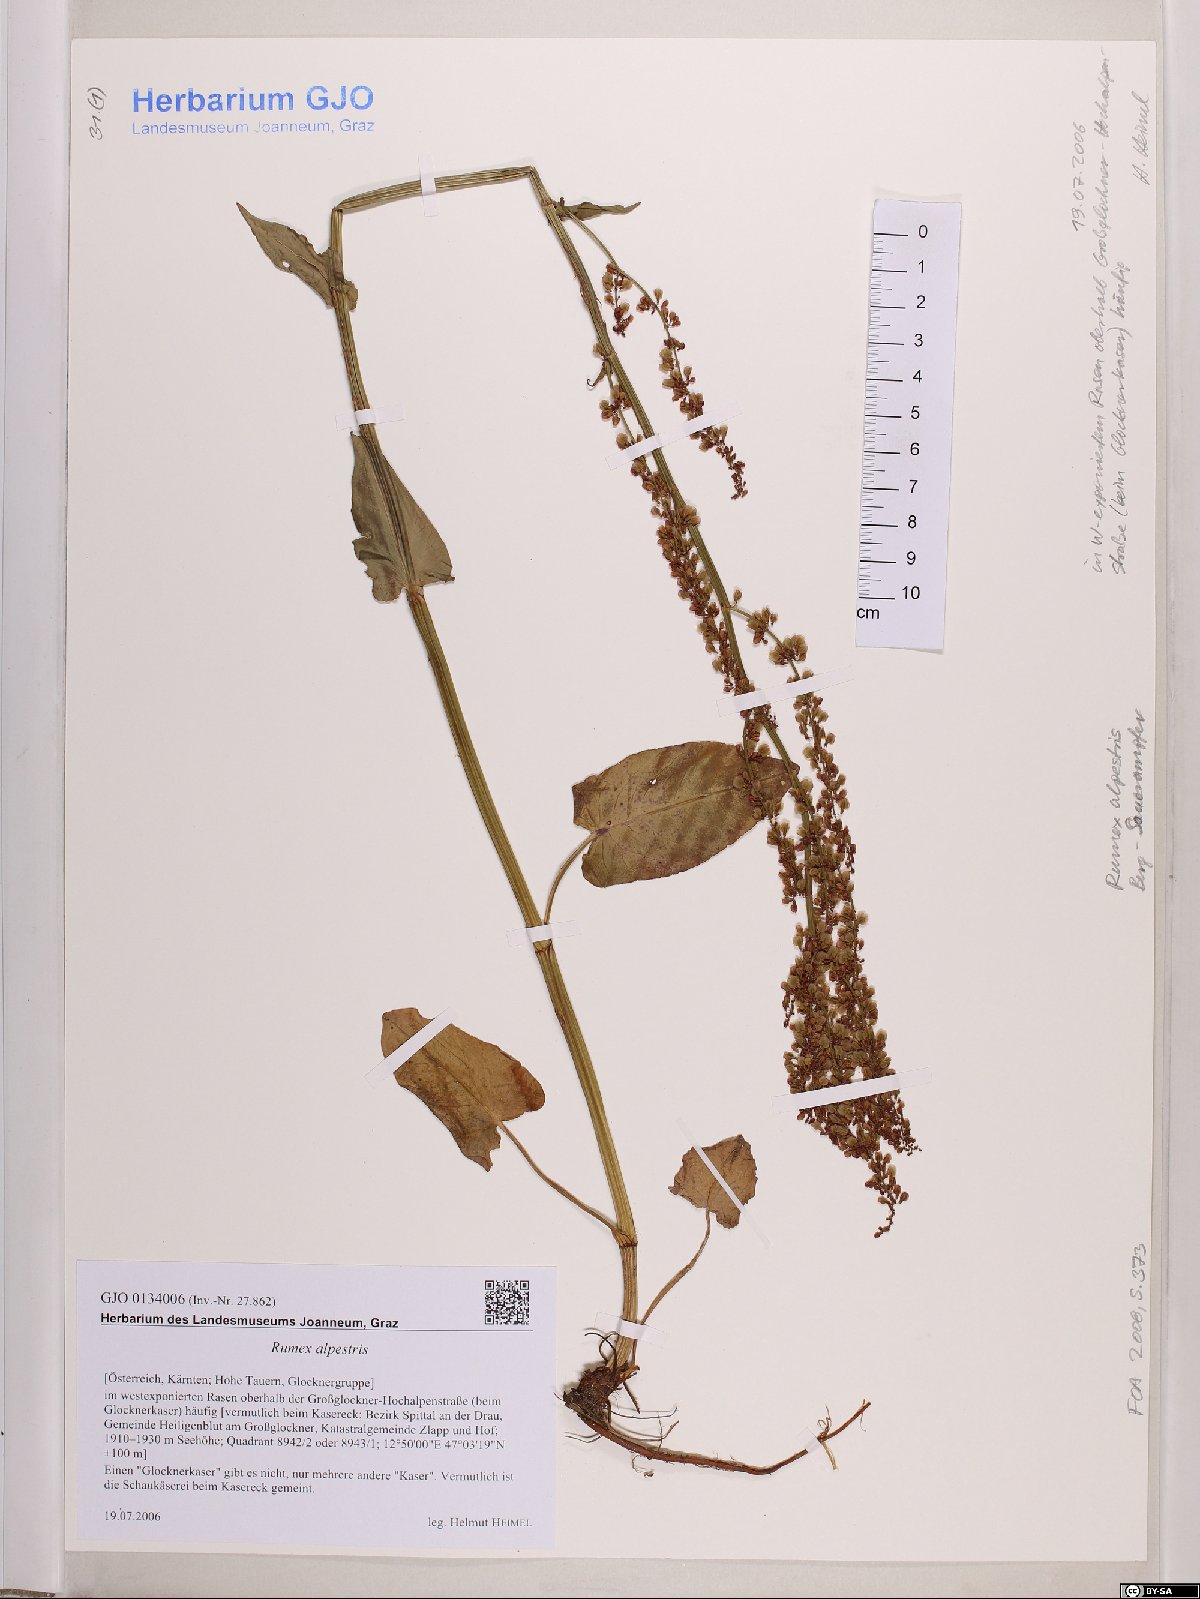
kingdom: Plantae
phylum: Tracheophyta
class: Magnoliopsida
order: Caryophyllales
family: Polygonaceae
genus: Rumex
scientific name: Rumex scutatus
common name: French sorrel
